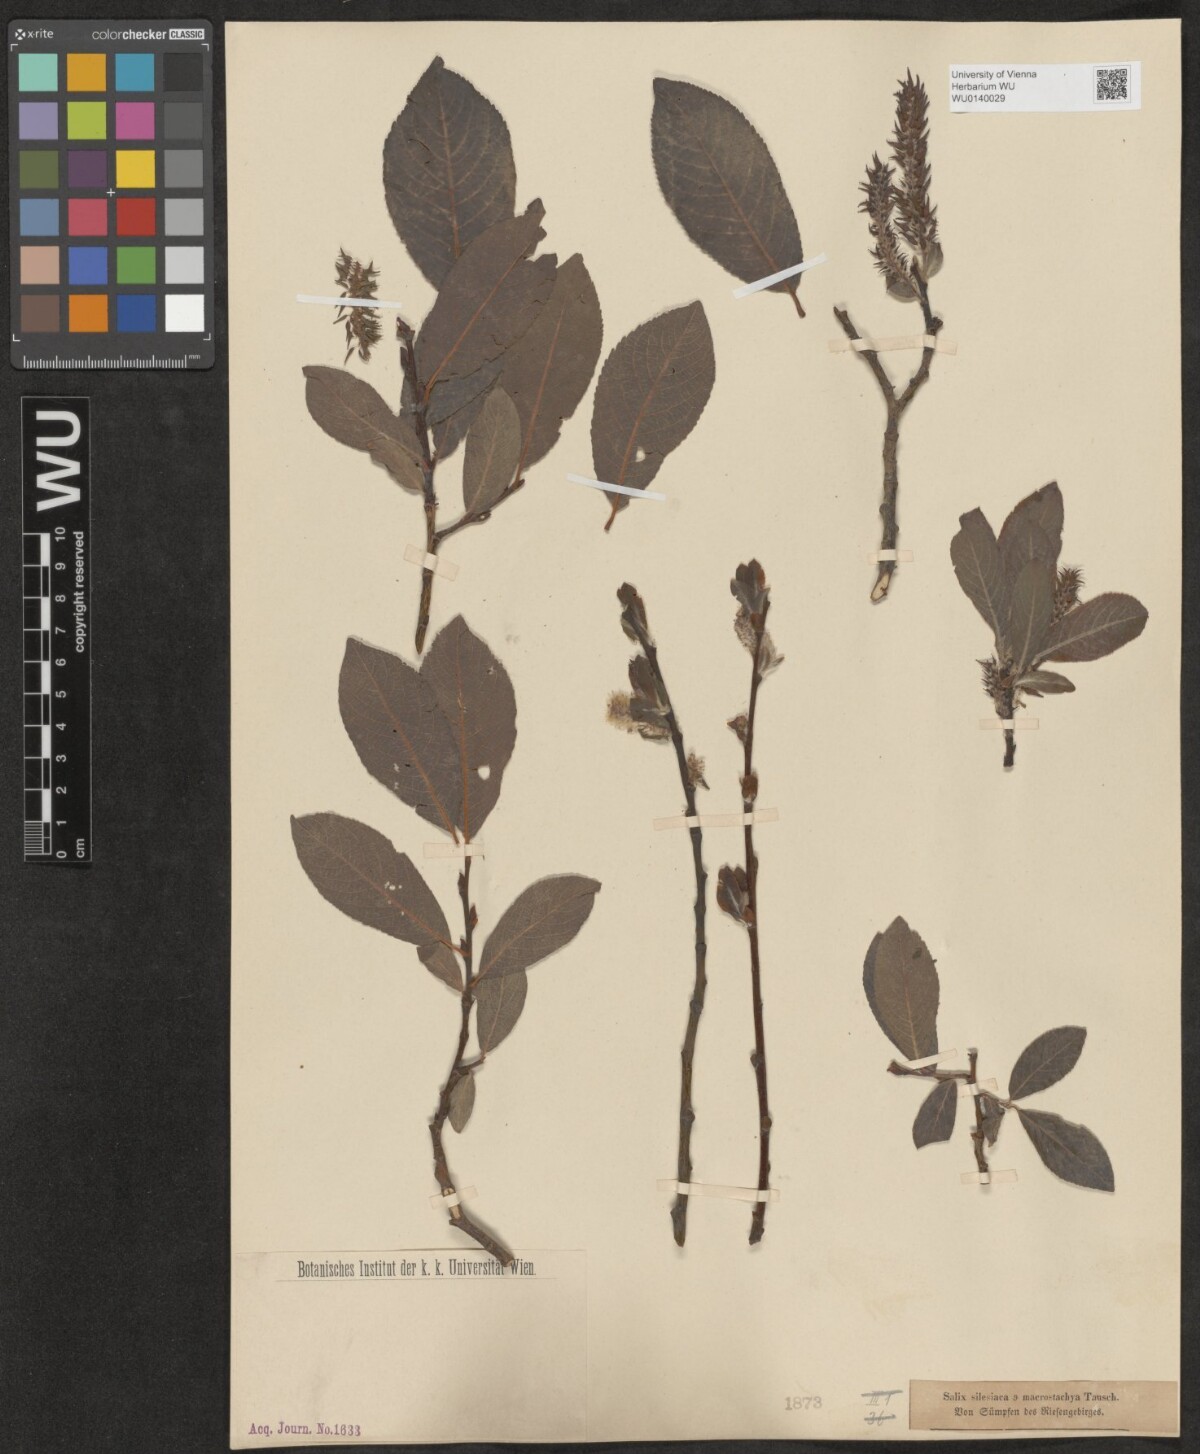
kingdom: Plantae
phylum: Tracheophyta
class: Magnoliopsida
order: Malpighiales
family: Salicaceae
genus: Salix
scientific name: Salix silesiaca
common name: Silesian willow
